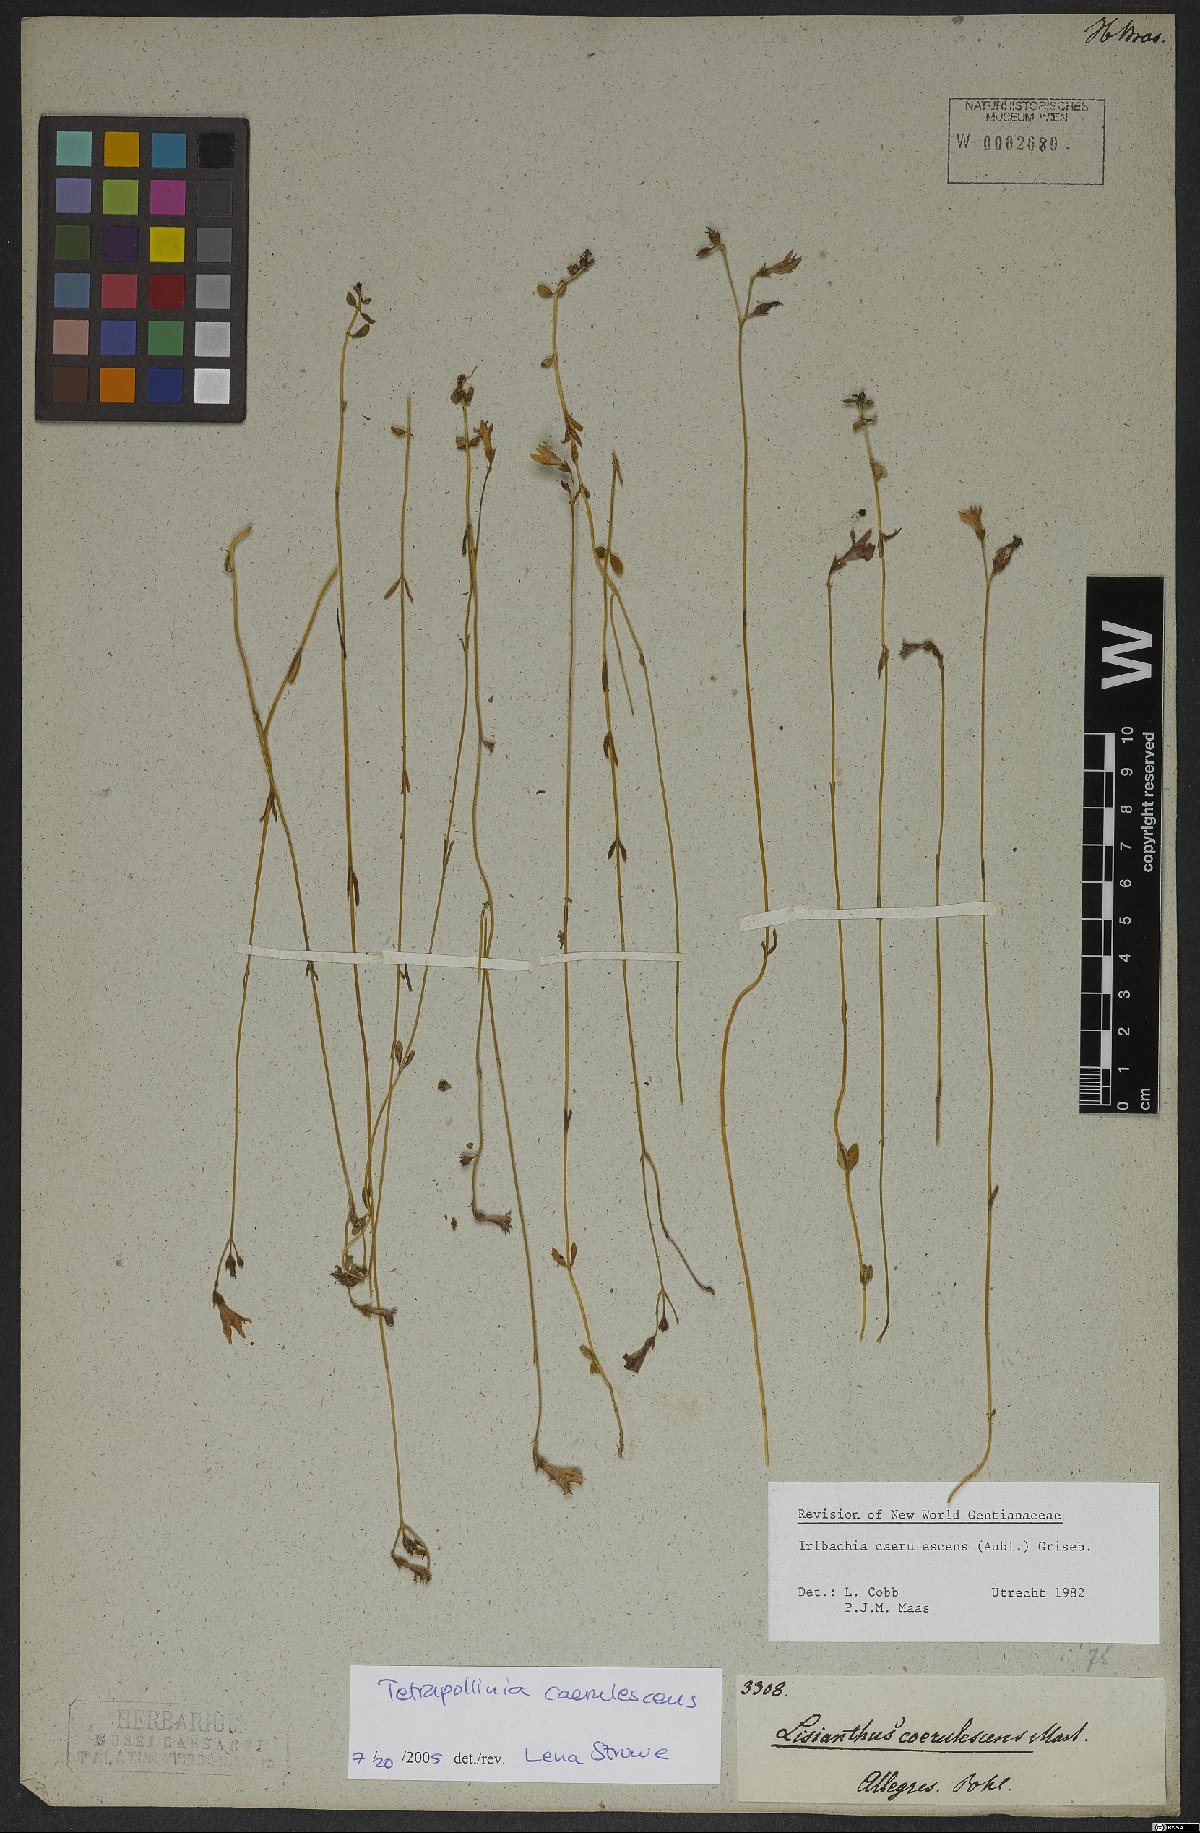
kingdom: Plantae
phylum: Tracheophyta
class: Magnoliopsida
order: Gentianales
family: Gentianaceae
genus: Tetrapollinia
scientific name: Tetrapollinia caerulescens
